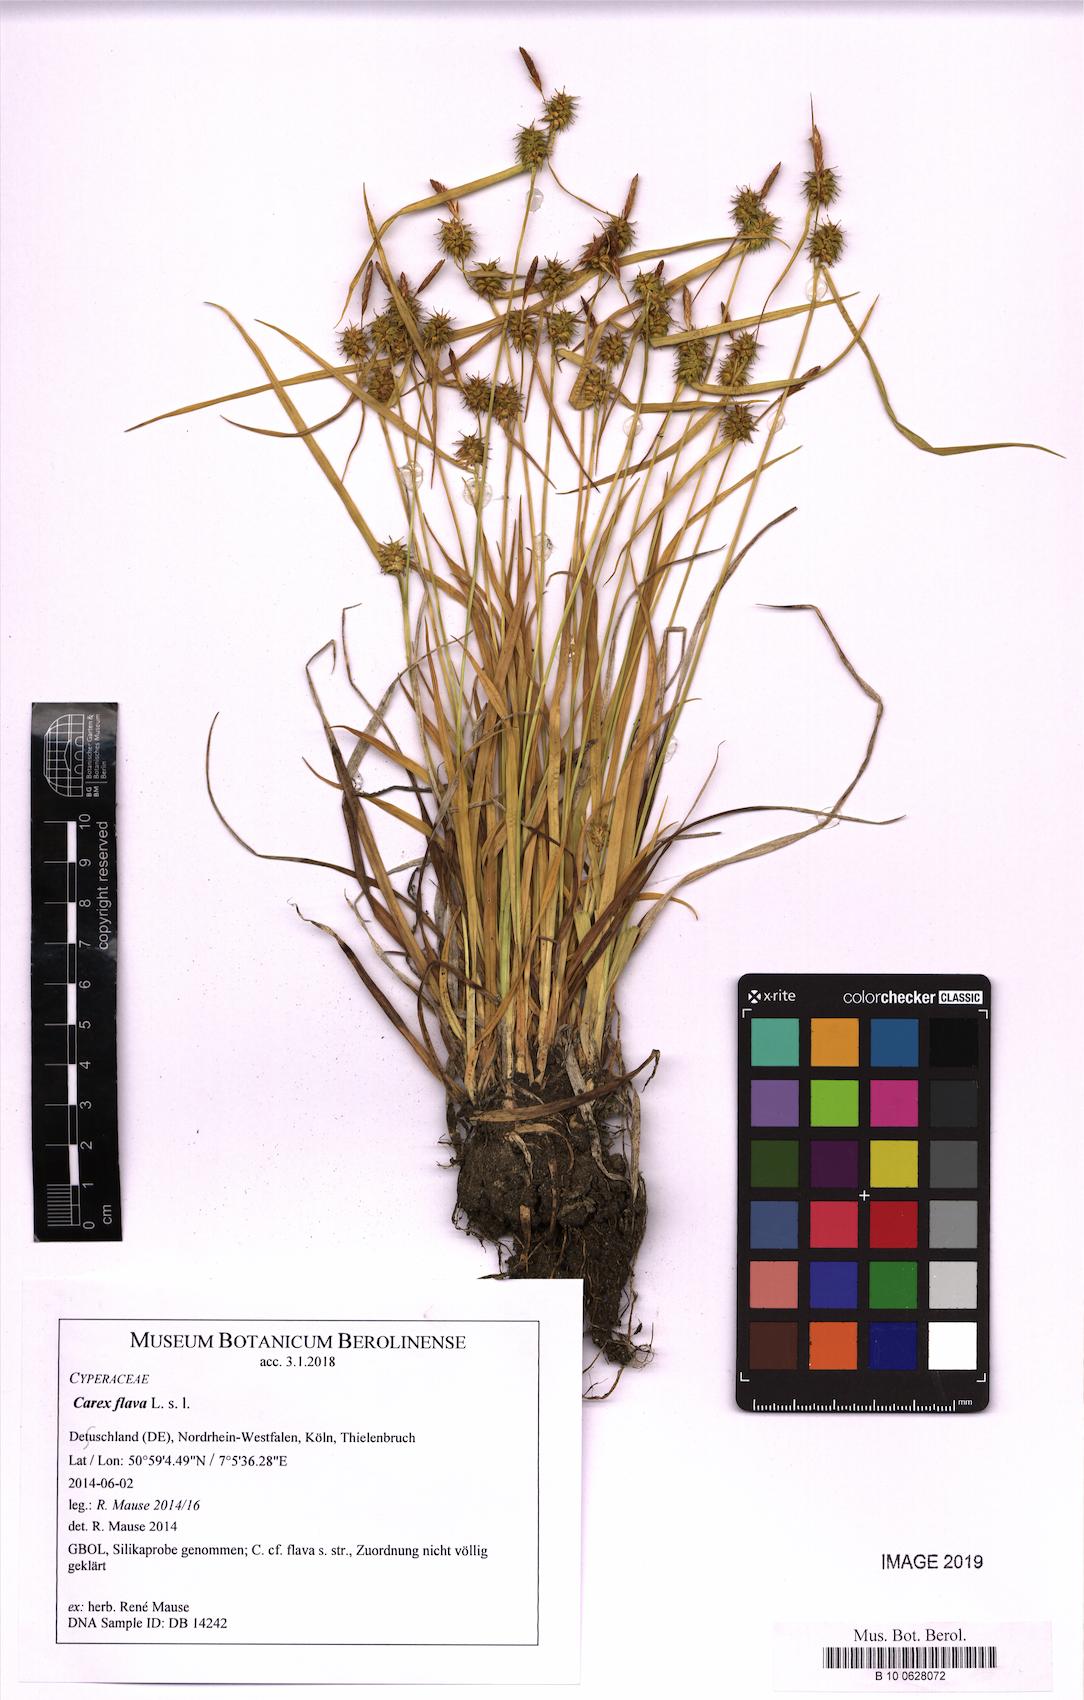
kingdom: Plantae
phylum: Tracheophyta
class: Liliopsida
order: Poales
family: Cyperaceae
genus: Carex
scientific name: Carex flava
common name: Large yellow-sedge
